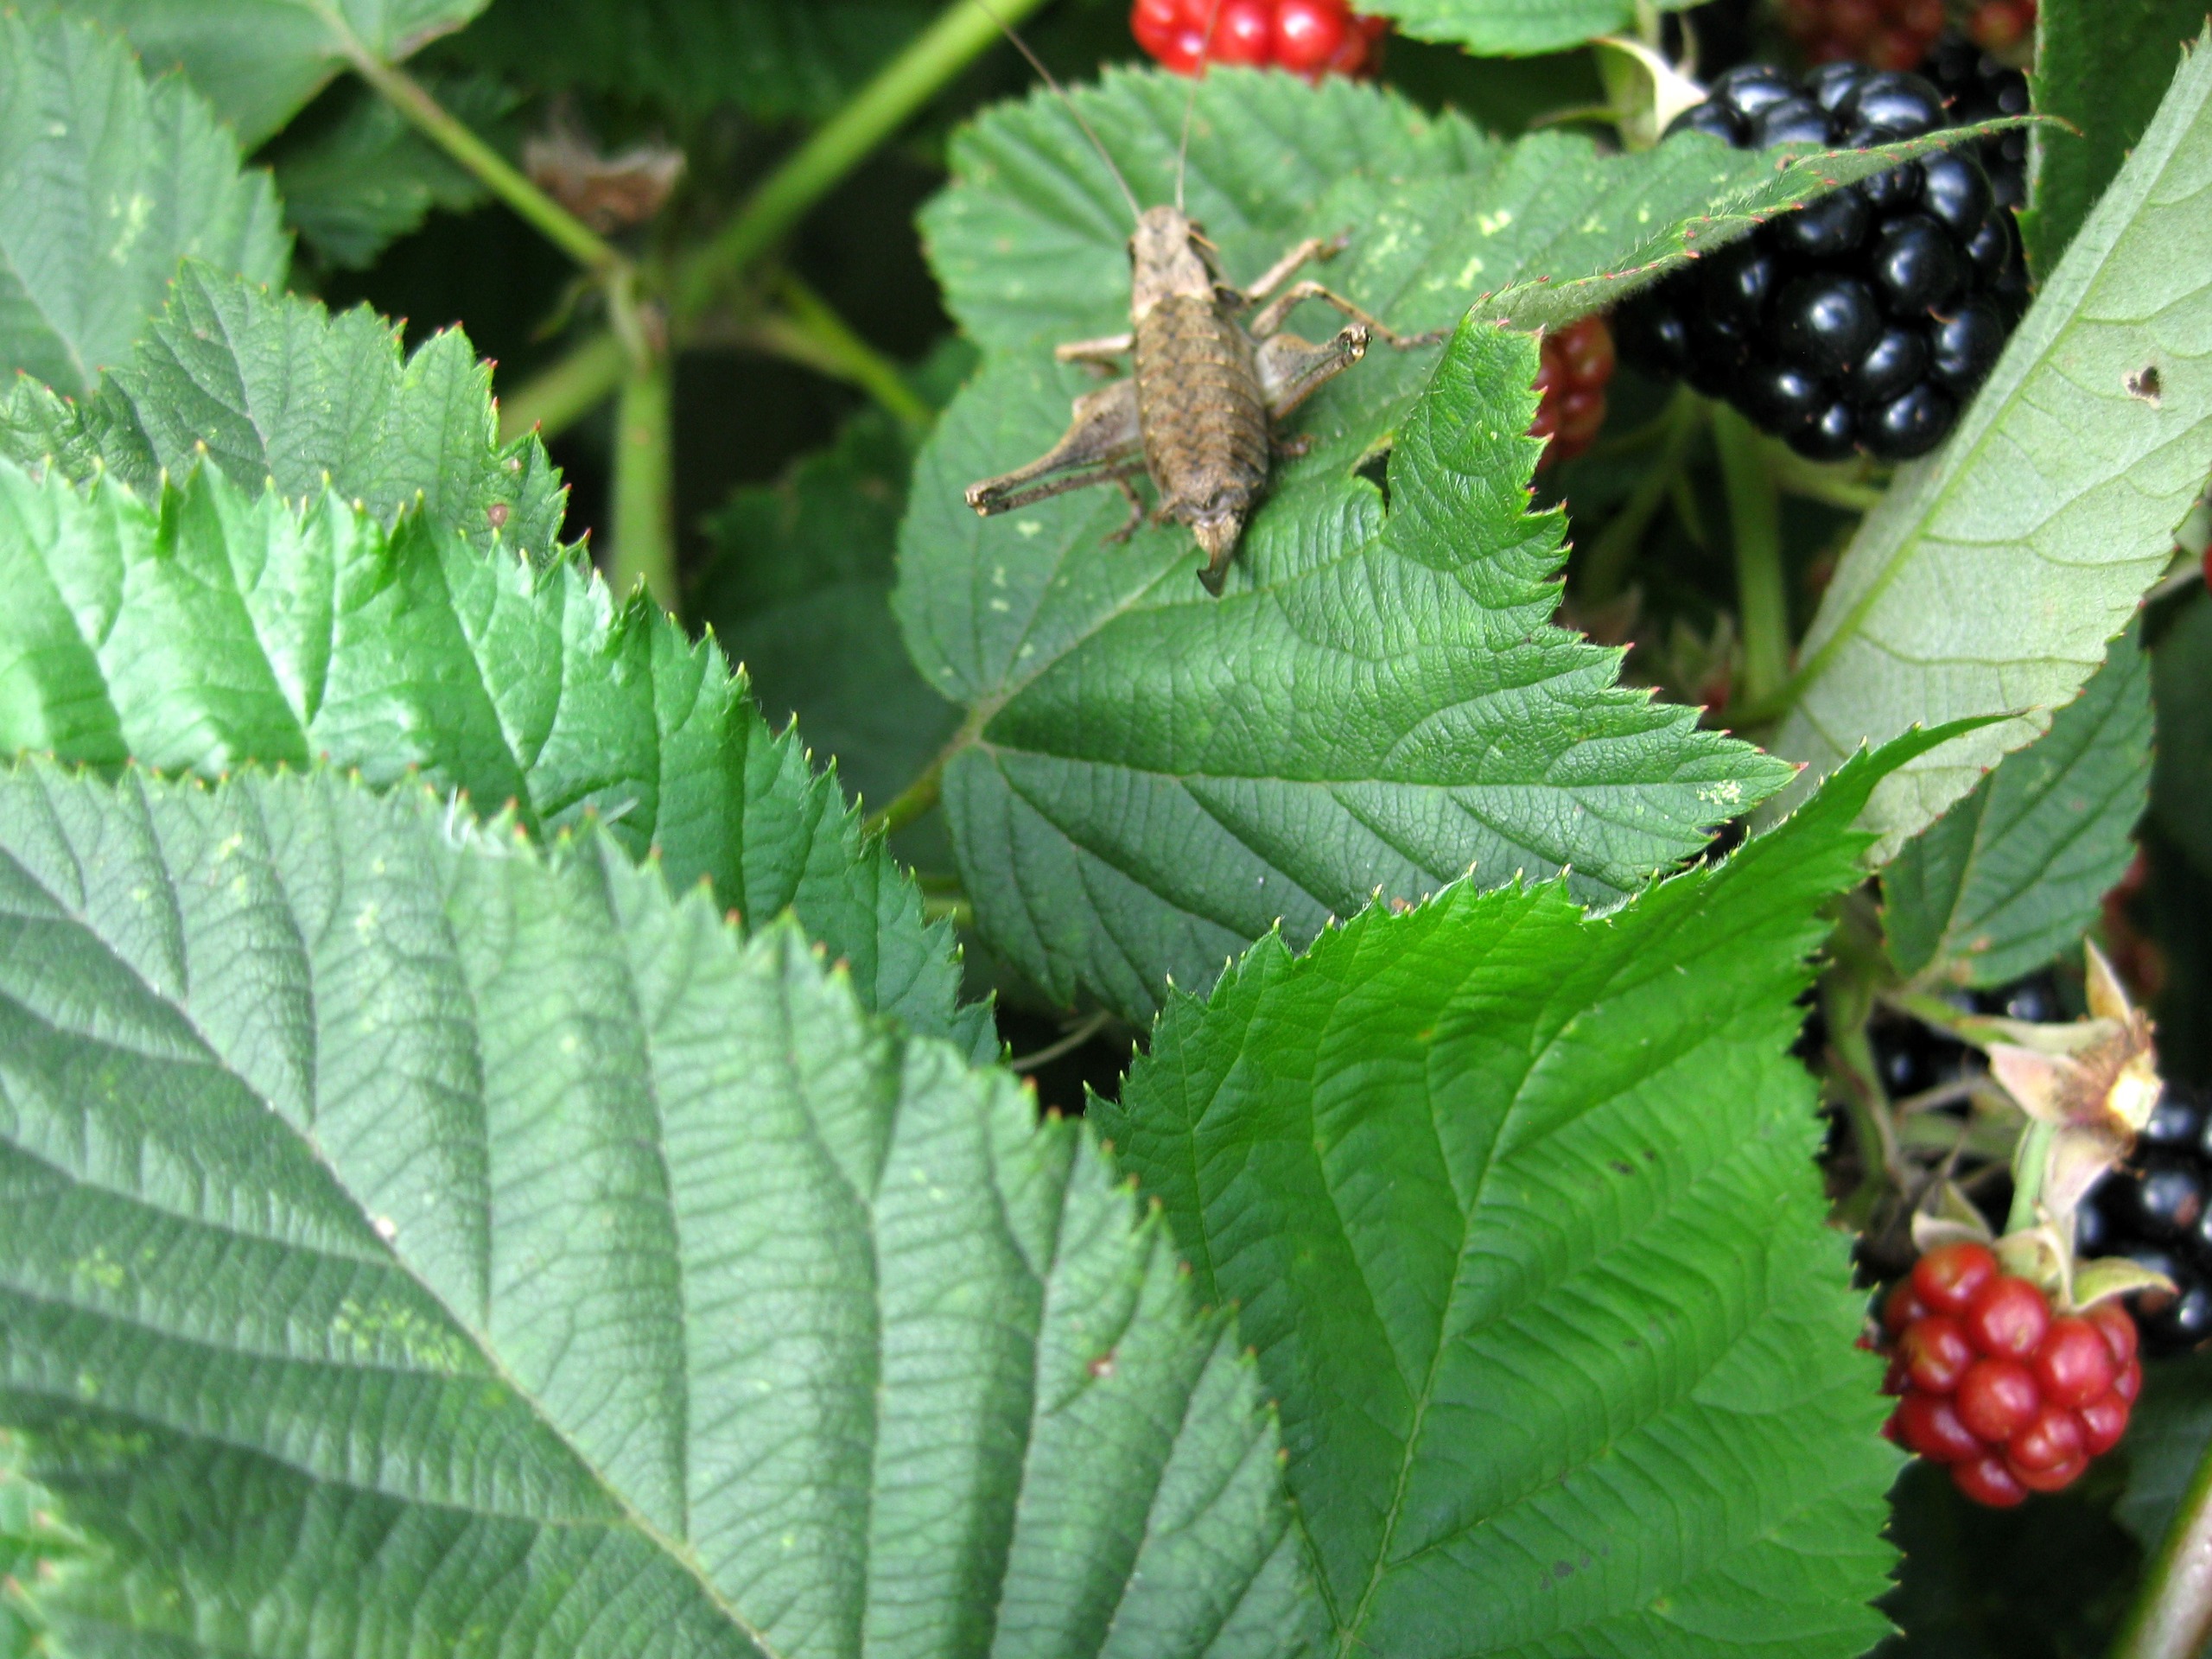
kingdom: Animalia
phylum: Arthropoda
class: Insecta
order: Orthoptera
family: Tettigoniidae
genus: Pholidoptera
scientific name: Pholidoptera griseoaptera
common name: Buskgræshoppe
